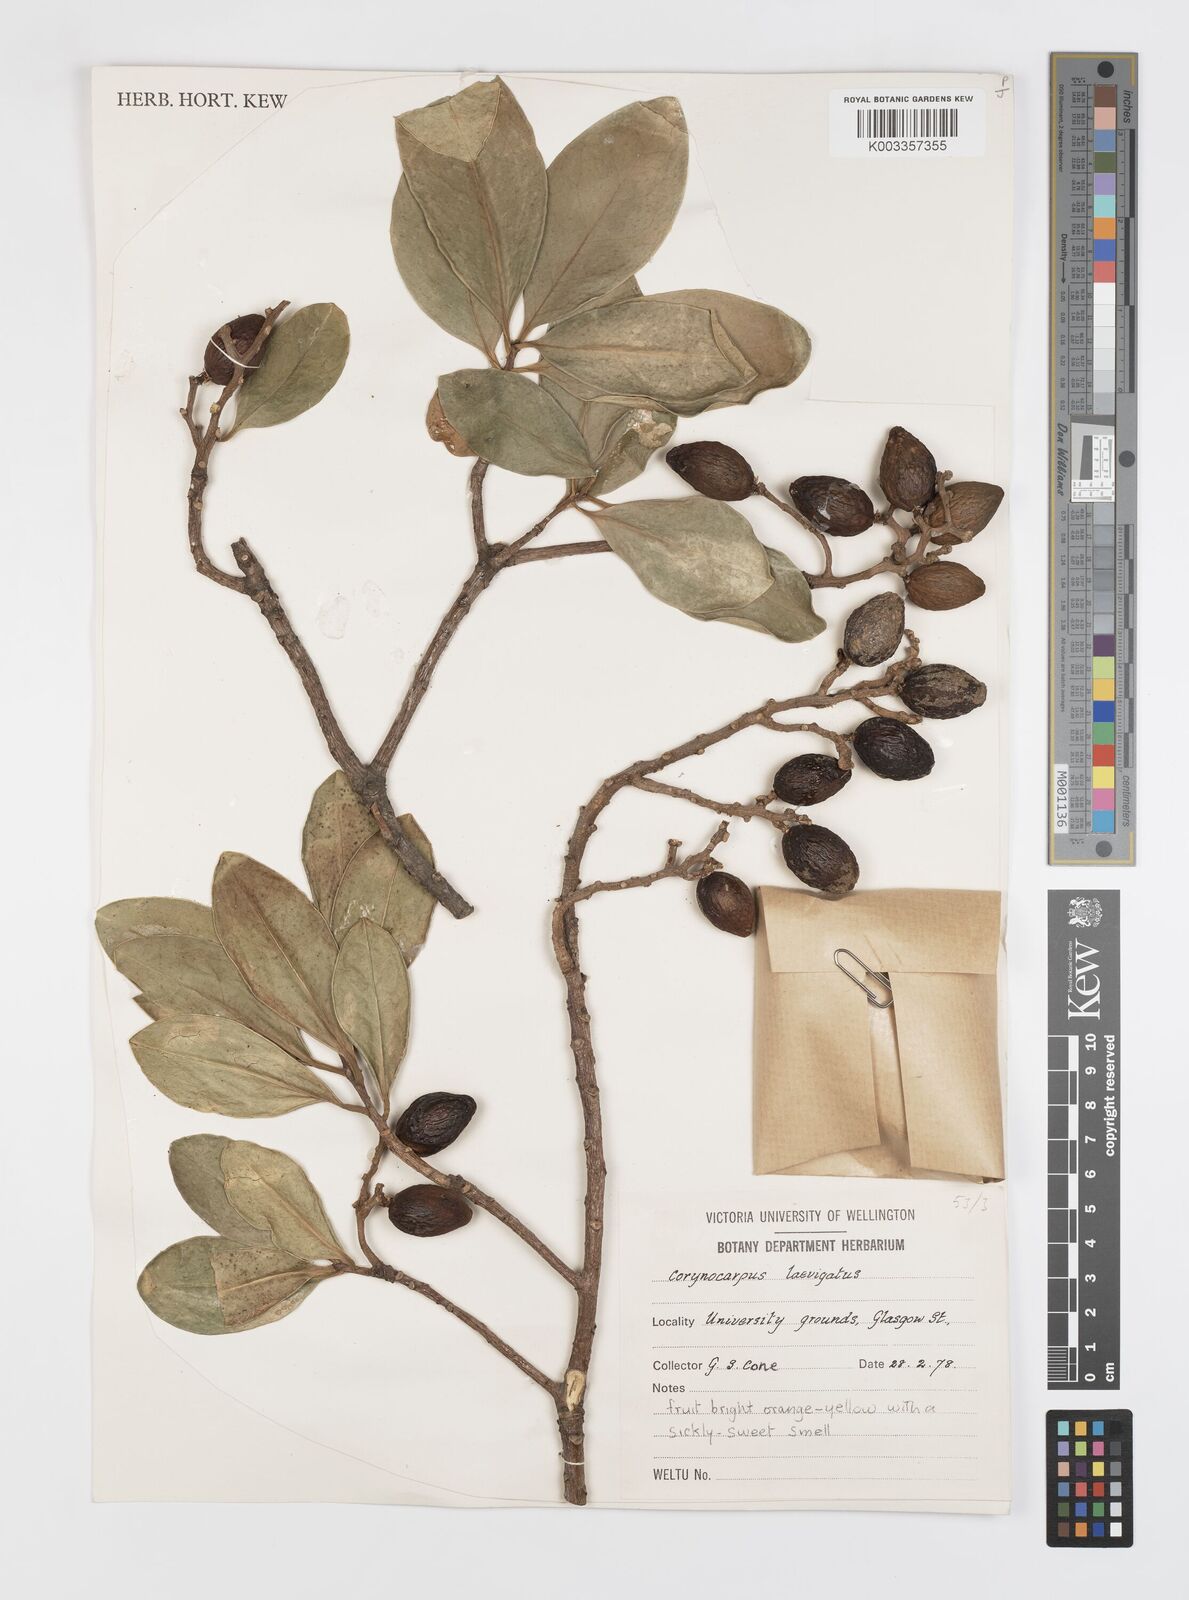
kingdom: Plantae
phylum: Tracheophyta
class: Magnoliopsida
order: Cucurbitales
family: Corynocarpaceae
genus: Corynocarpus
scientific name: Corynocarpus laevigatus
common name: New zealand laurel
